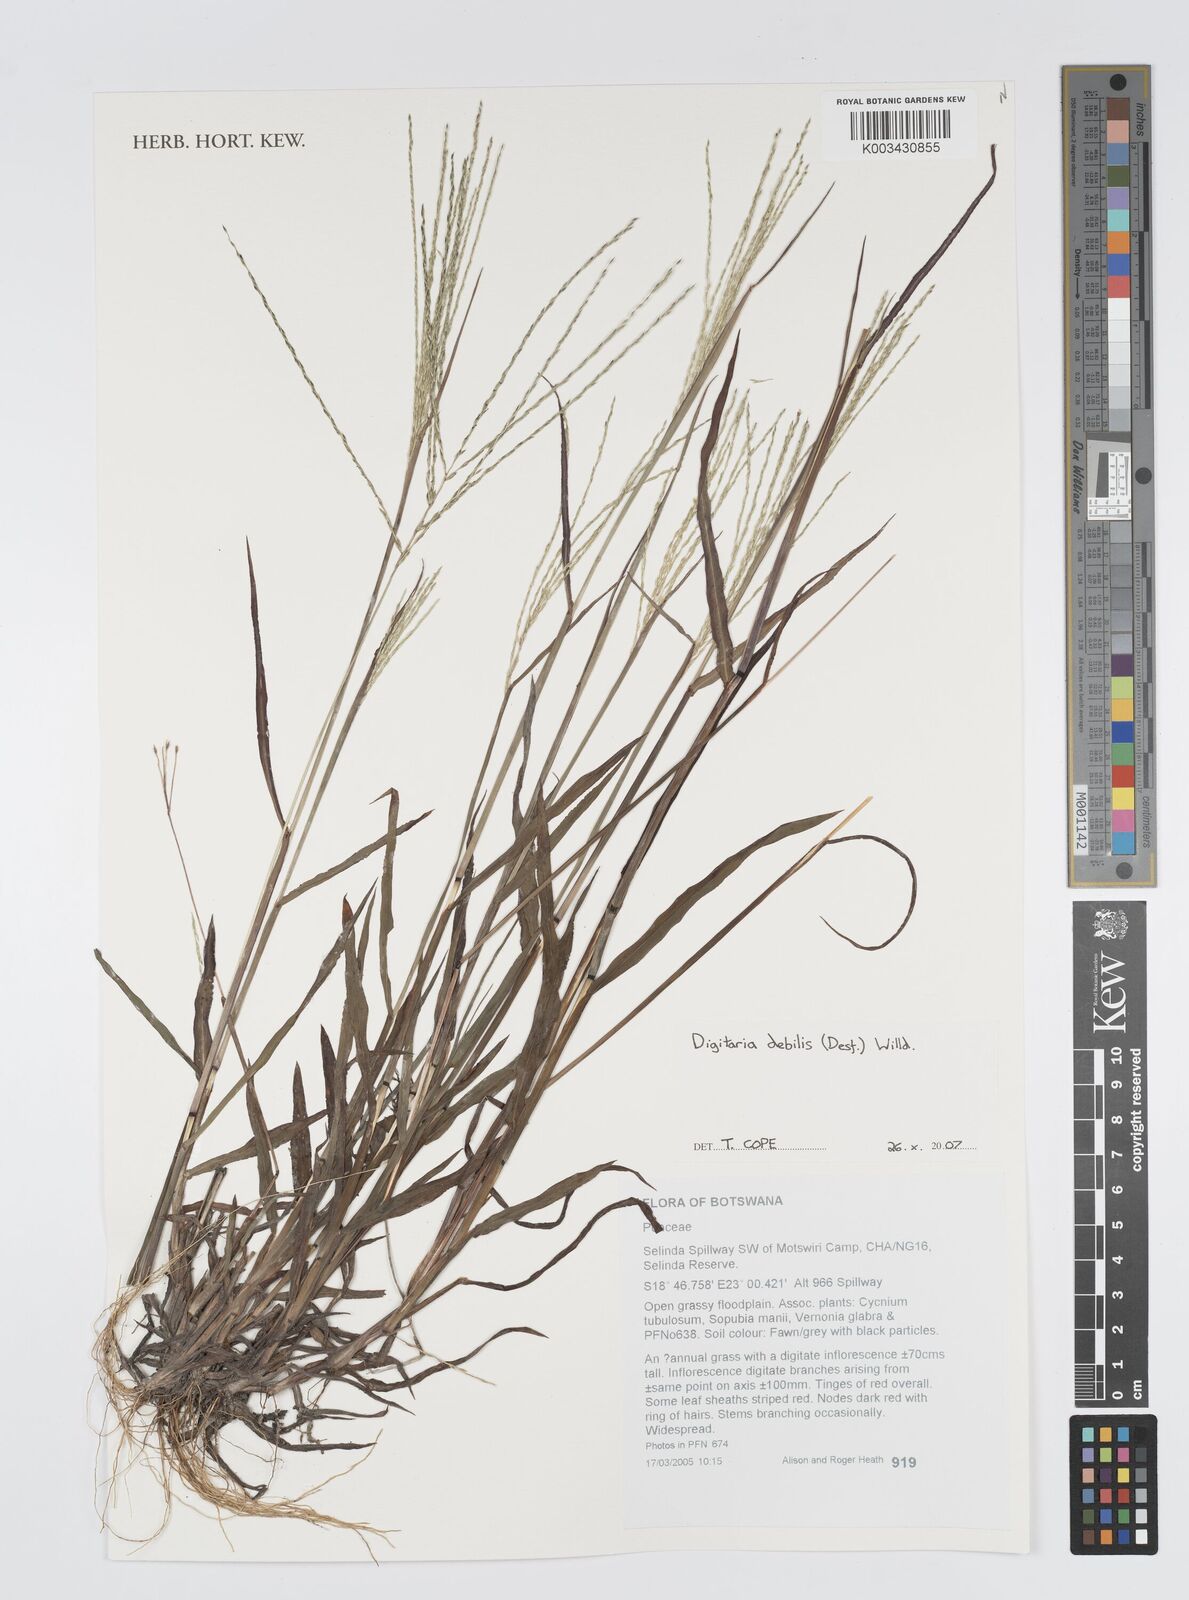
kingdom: Plantae
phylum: Tracheophyta
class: Liliopsida
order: Poales
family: Poaceae
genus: Digitaria
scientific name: Digitaria debilis
